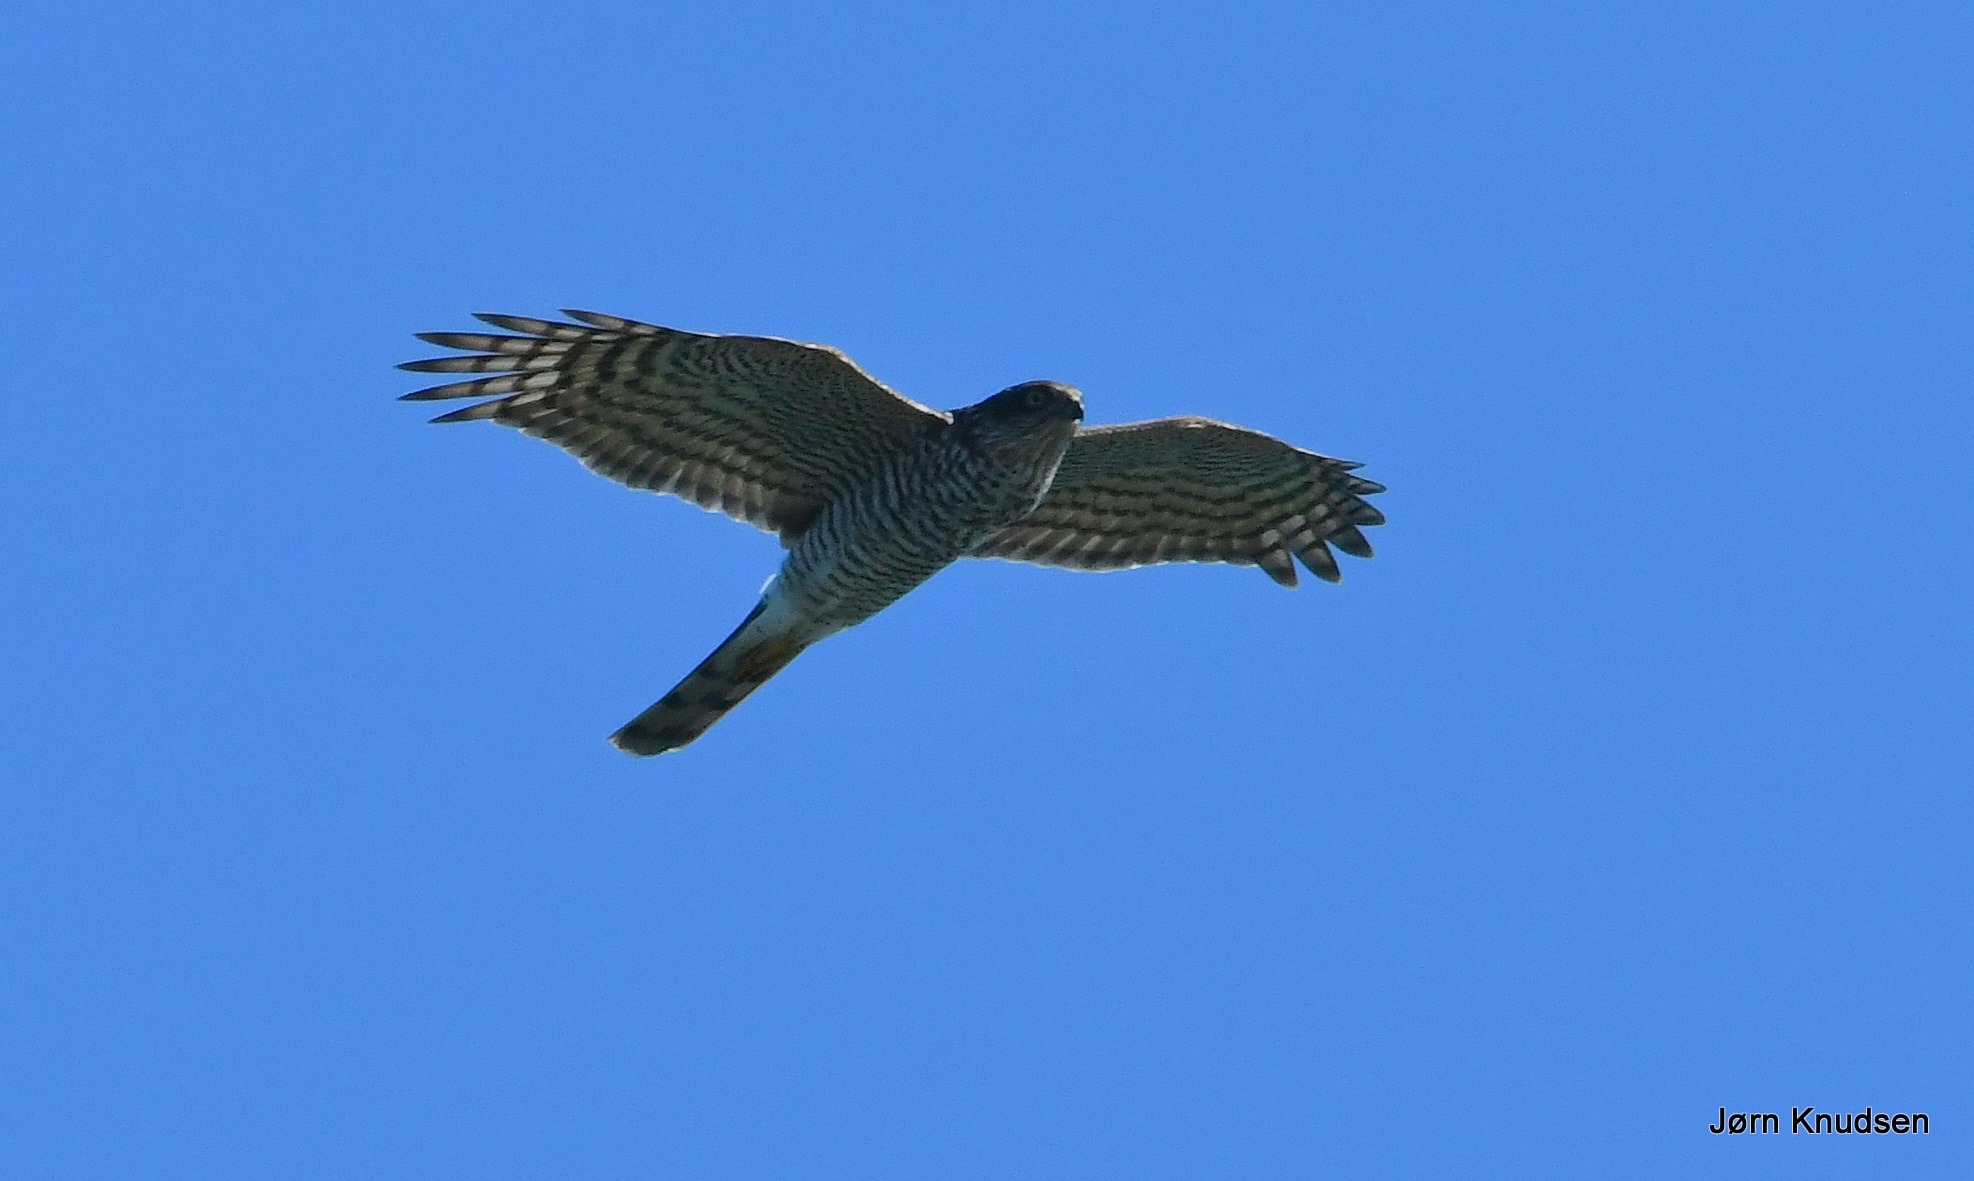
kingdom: Animalia
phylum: Chordata
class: Aves
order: Accipitriformes
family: Accipitridae
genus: Accipiter
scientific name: Accipiter nisus
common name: Spurvehøg
